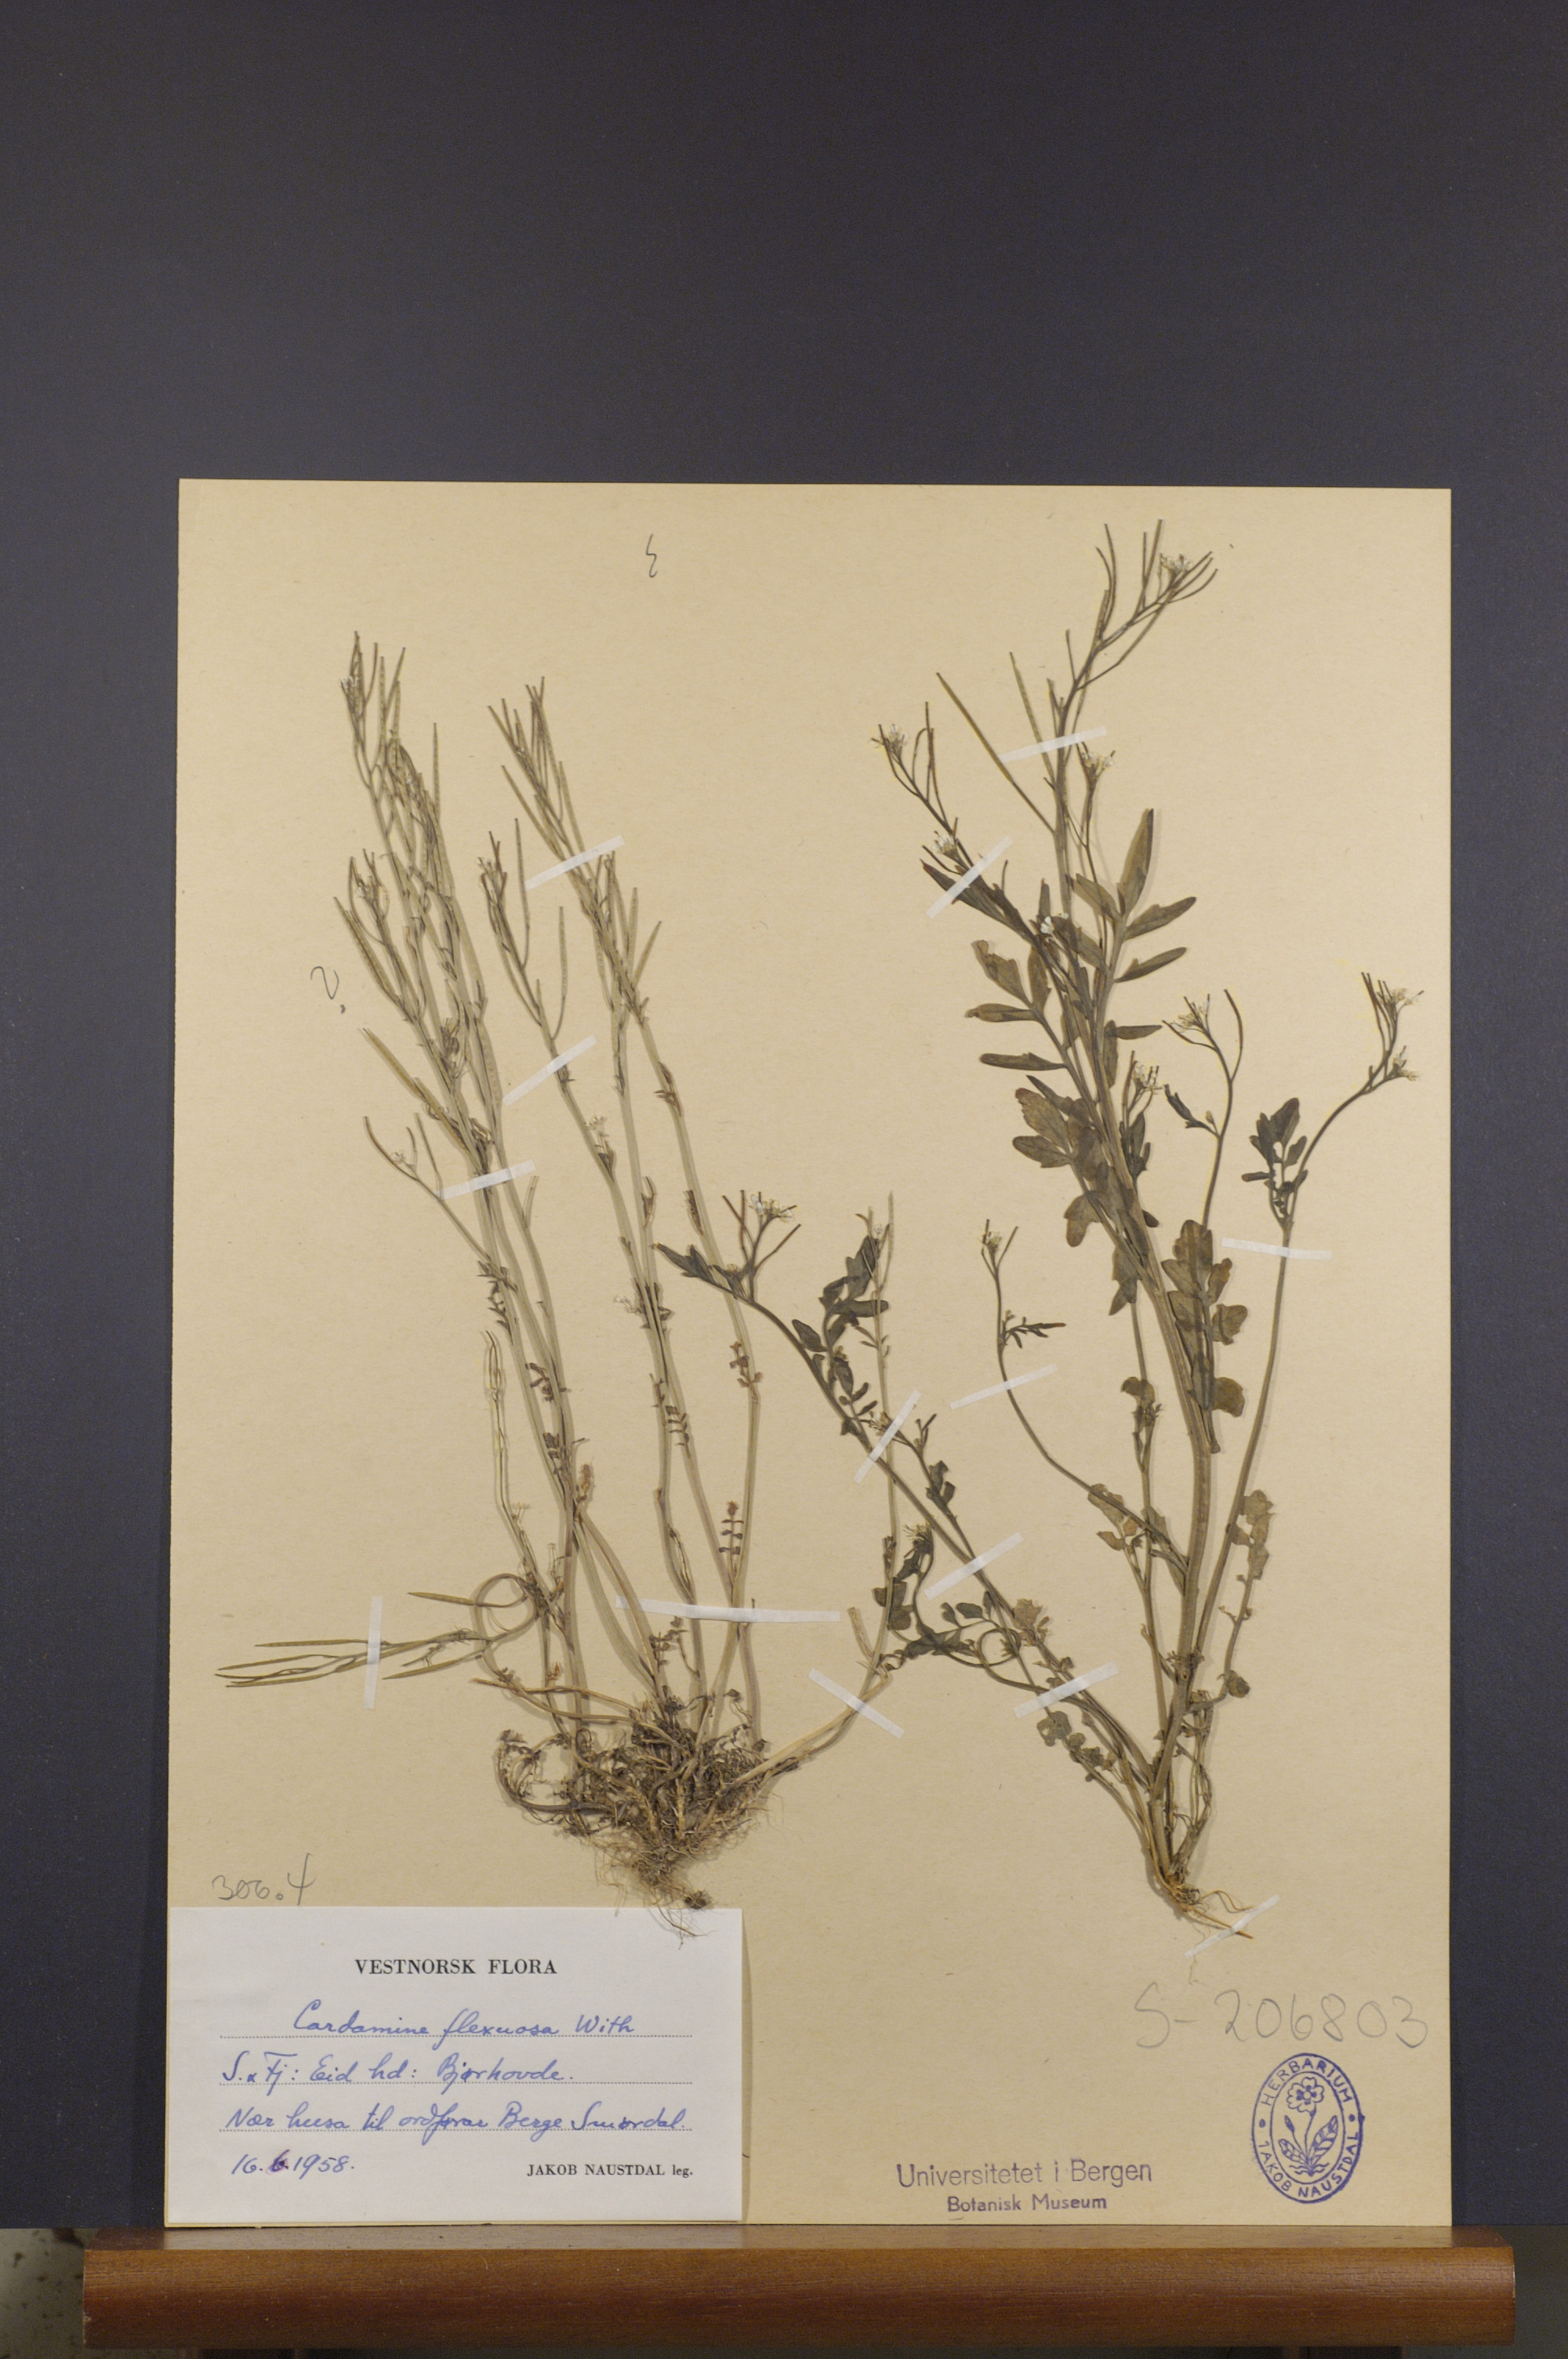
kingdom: Plantae
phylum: Tracheophyta
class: Magnoliopsida
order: Brassicales
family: Brassicaceae
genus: Cardamine
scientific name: Cardamine flexuosa
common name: Woodland bittercress
